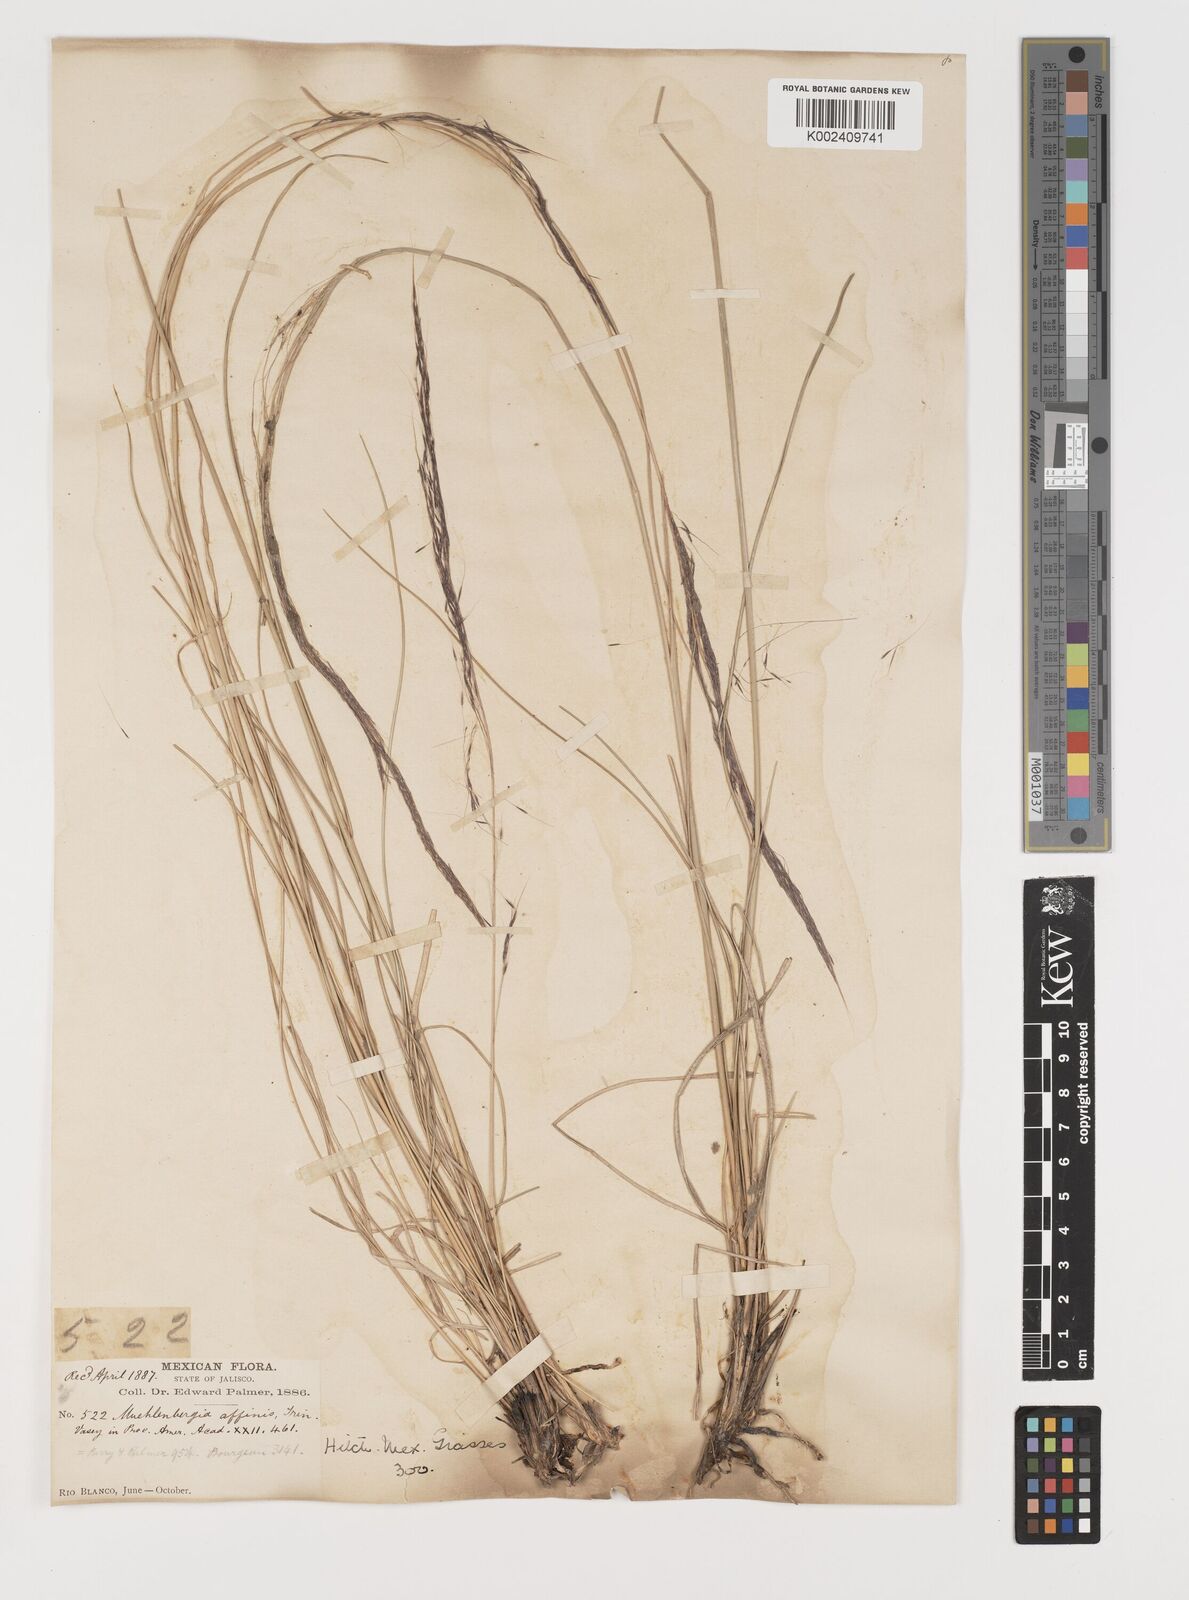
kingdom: Plantae
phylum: Tracheophyta
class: Liliopsida
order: Poales
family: Poaceae
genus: Muhlenbergia
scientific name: Muhlenbergia rigida
